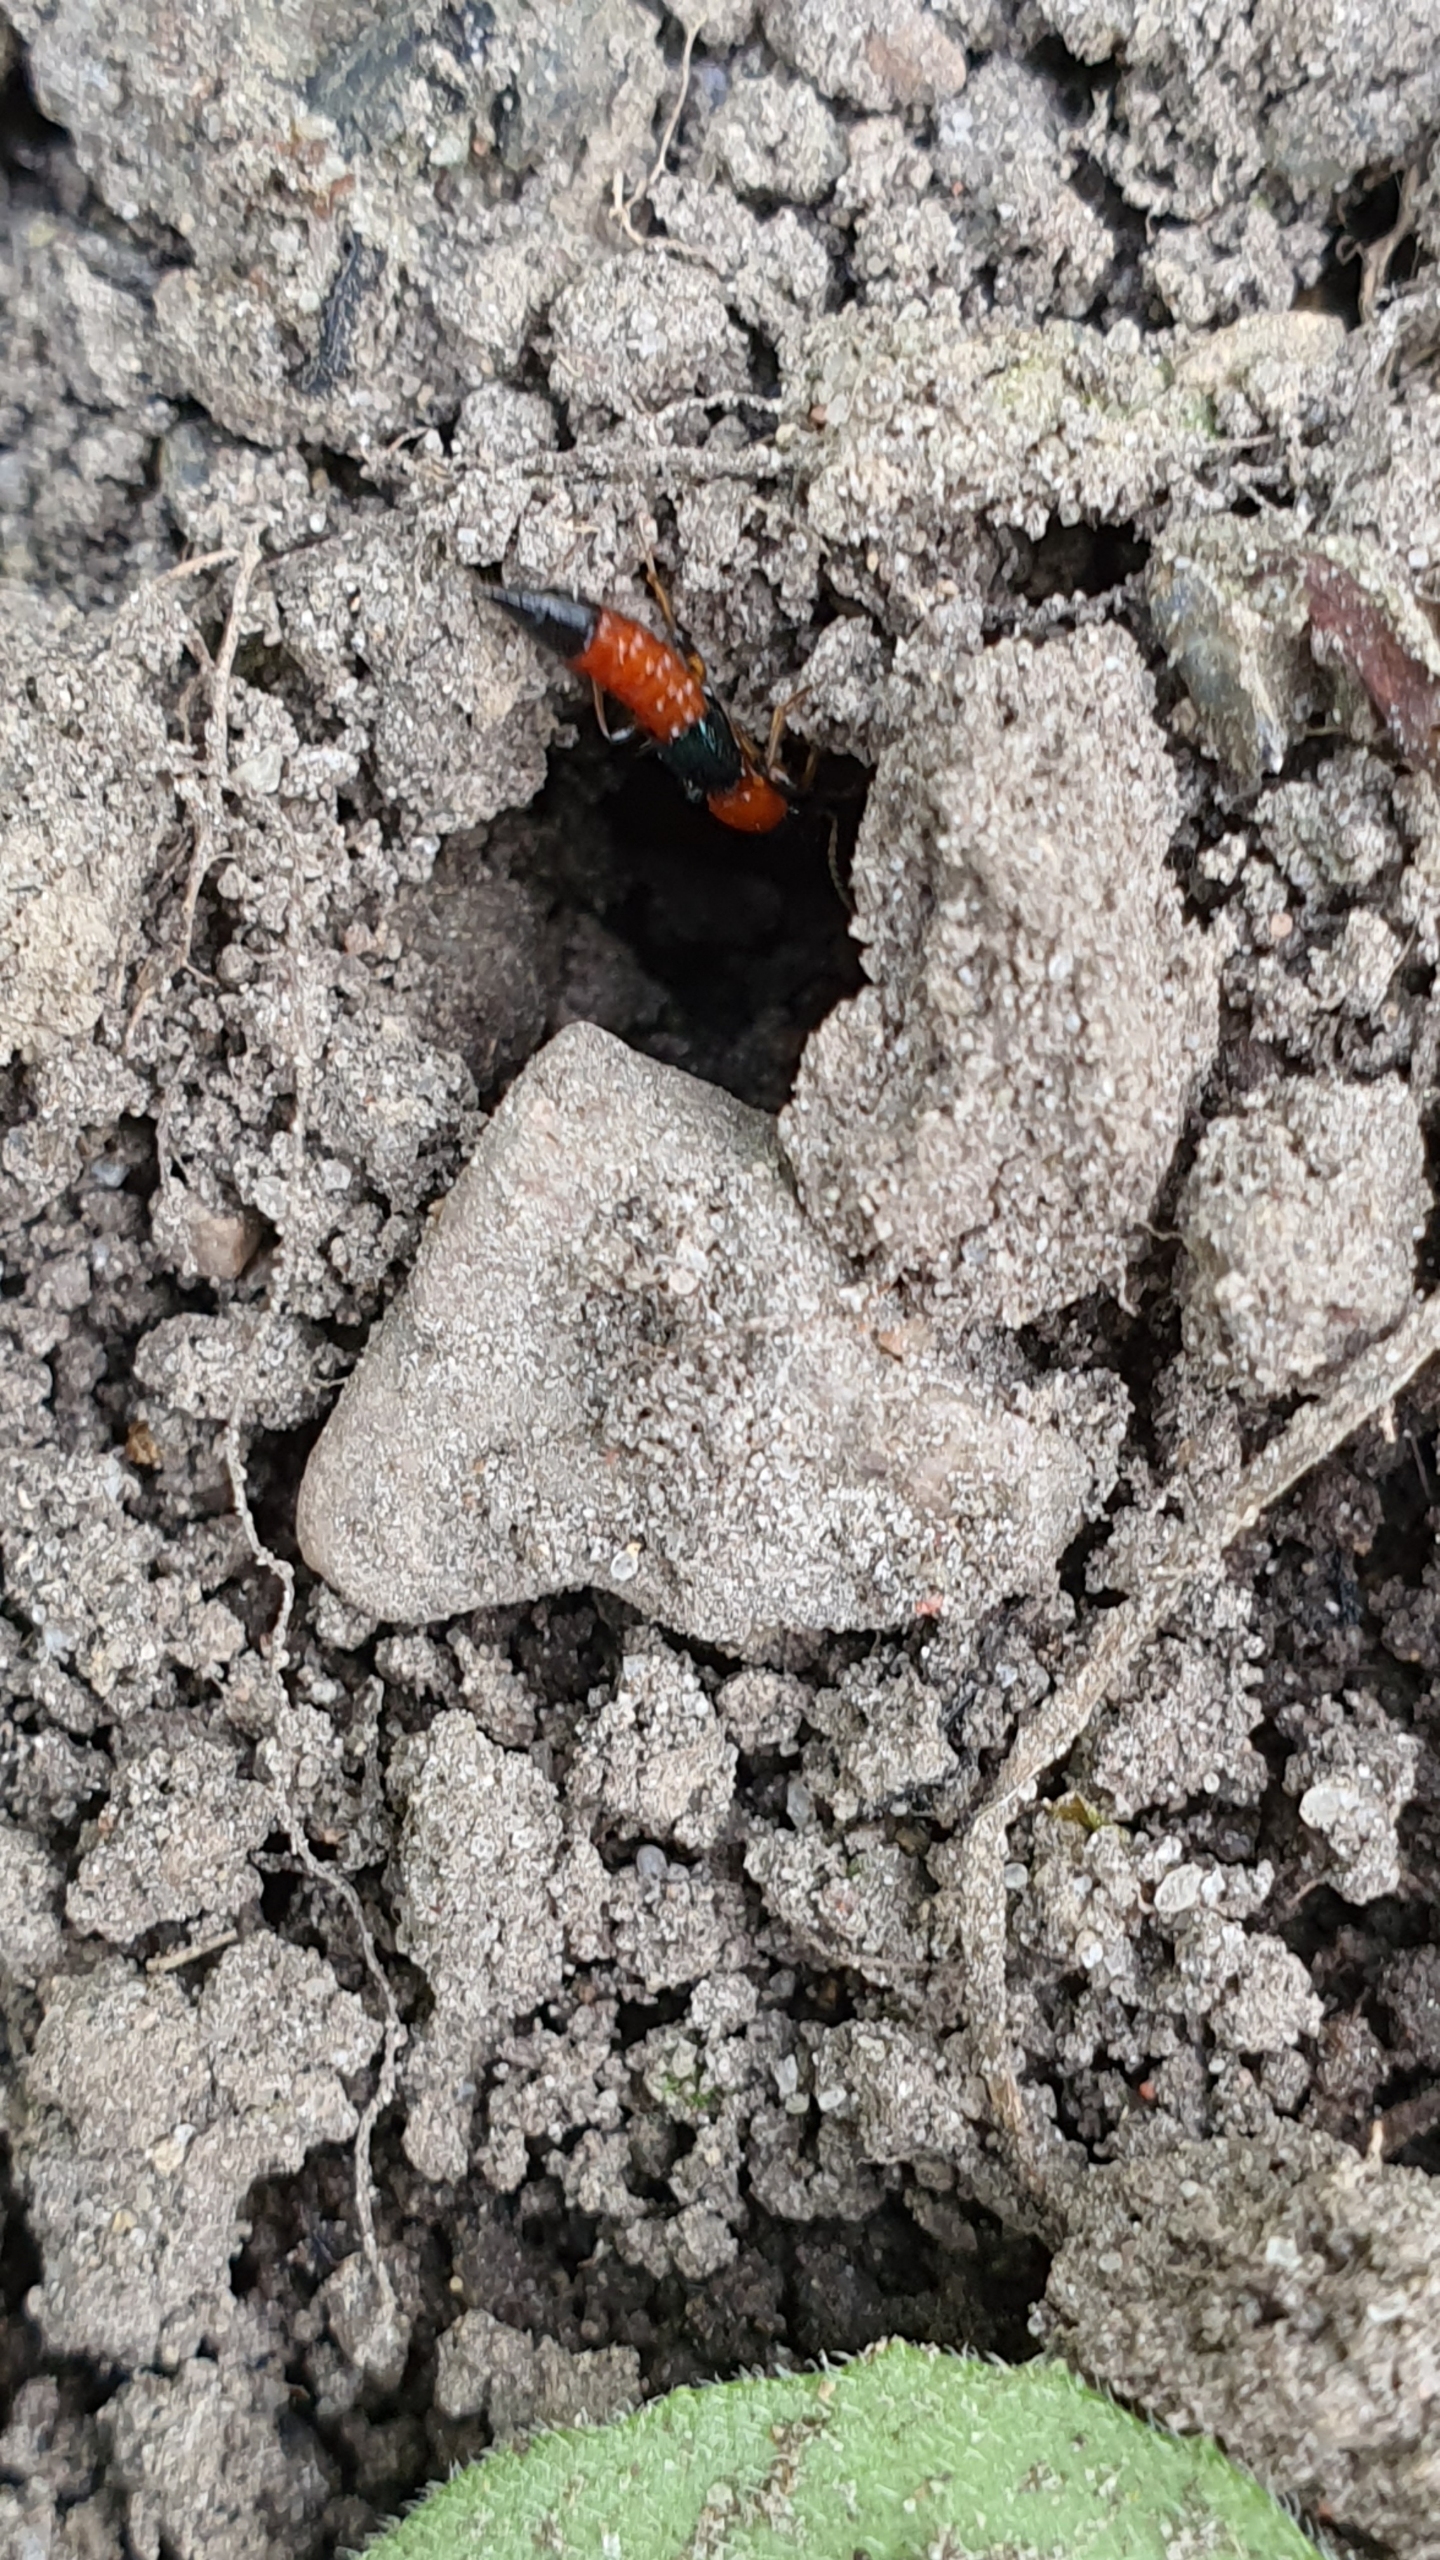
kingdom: Animalia
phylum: Arthropoda
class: Insecta
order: Coleoptera
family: Staphylinidae
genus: Paederus
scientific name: Paederus
